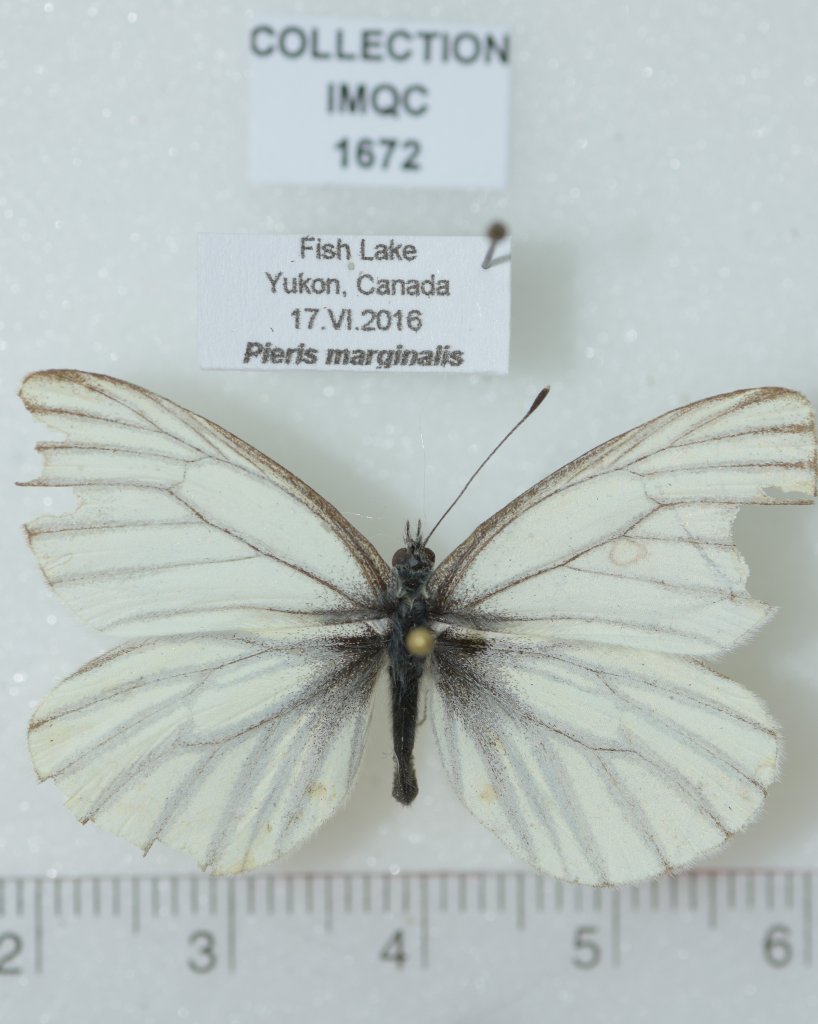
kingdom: Animalia
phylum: Arthropoda
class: Insecta
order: Lepidoptera
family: Pieridae
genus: Pieris
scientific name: Pieris angelika
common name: Arctic White
